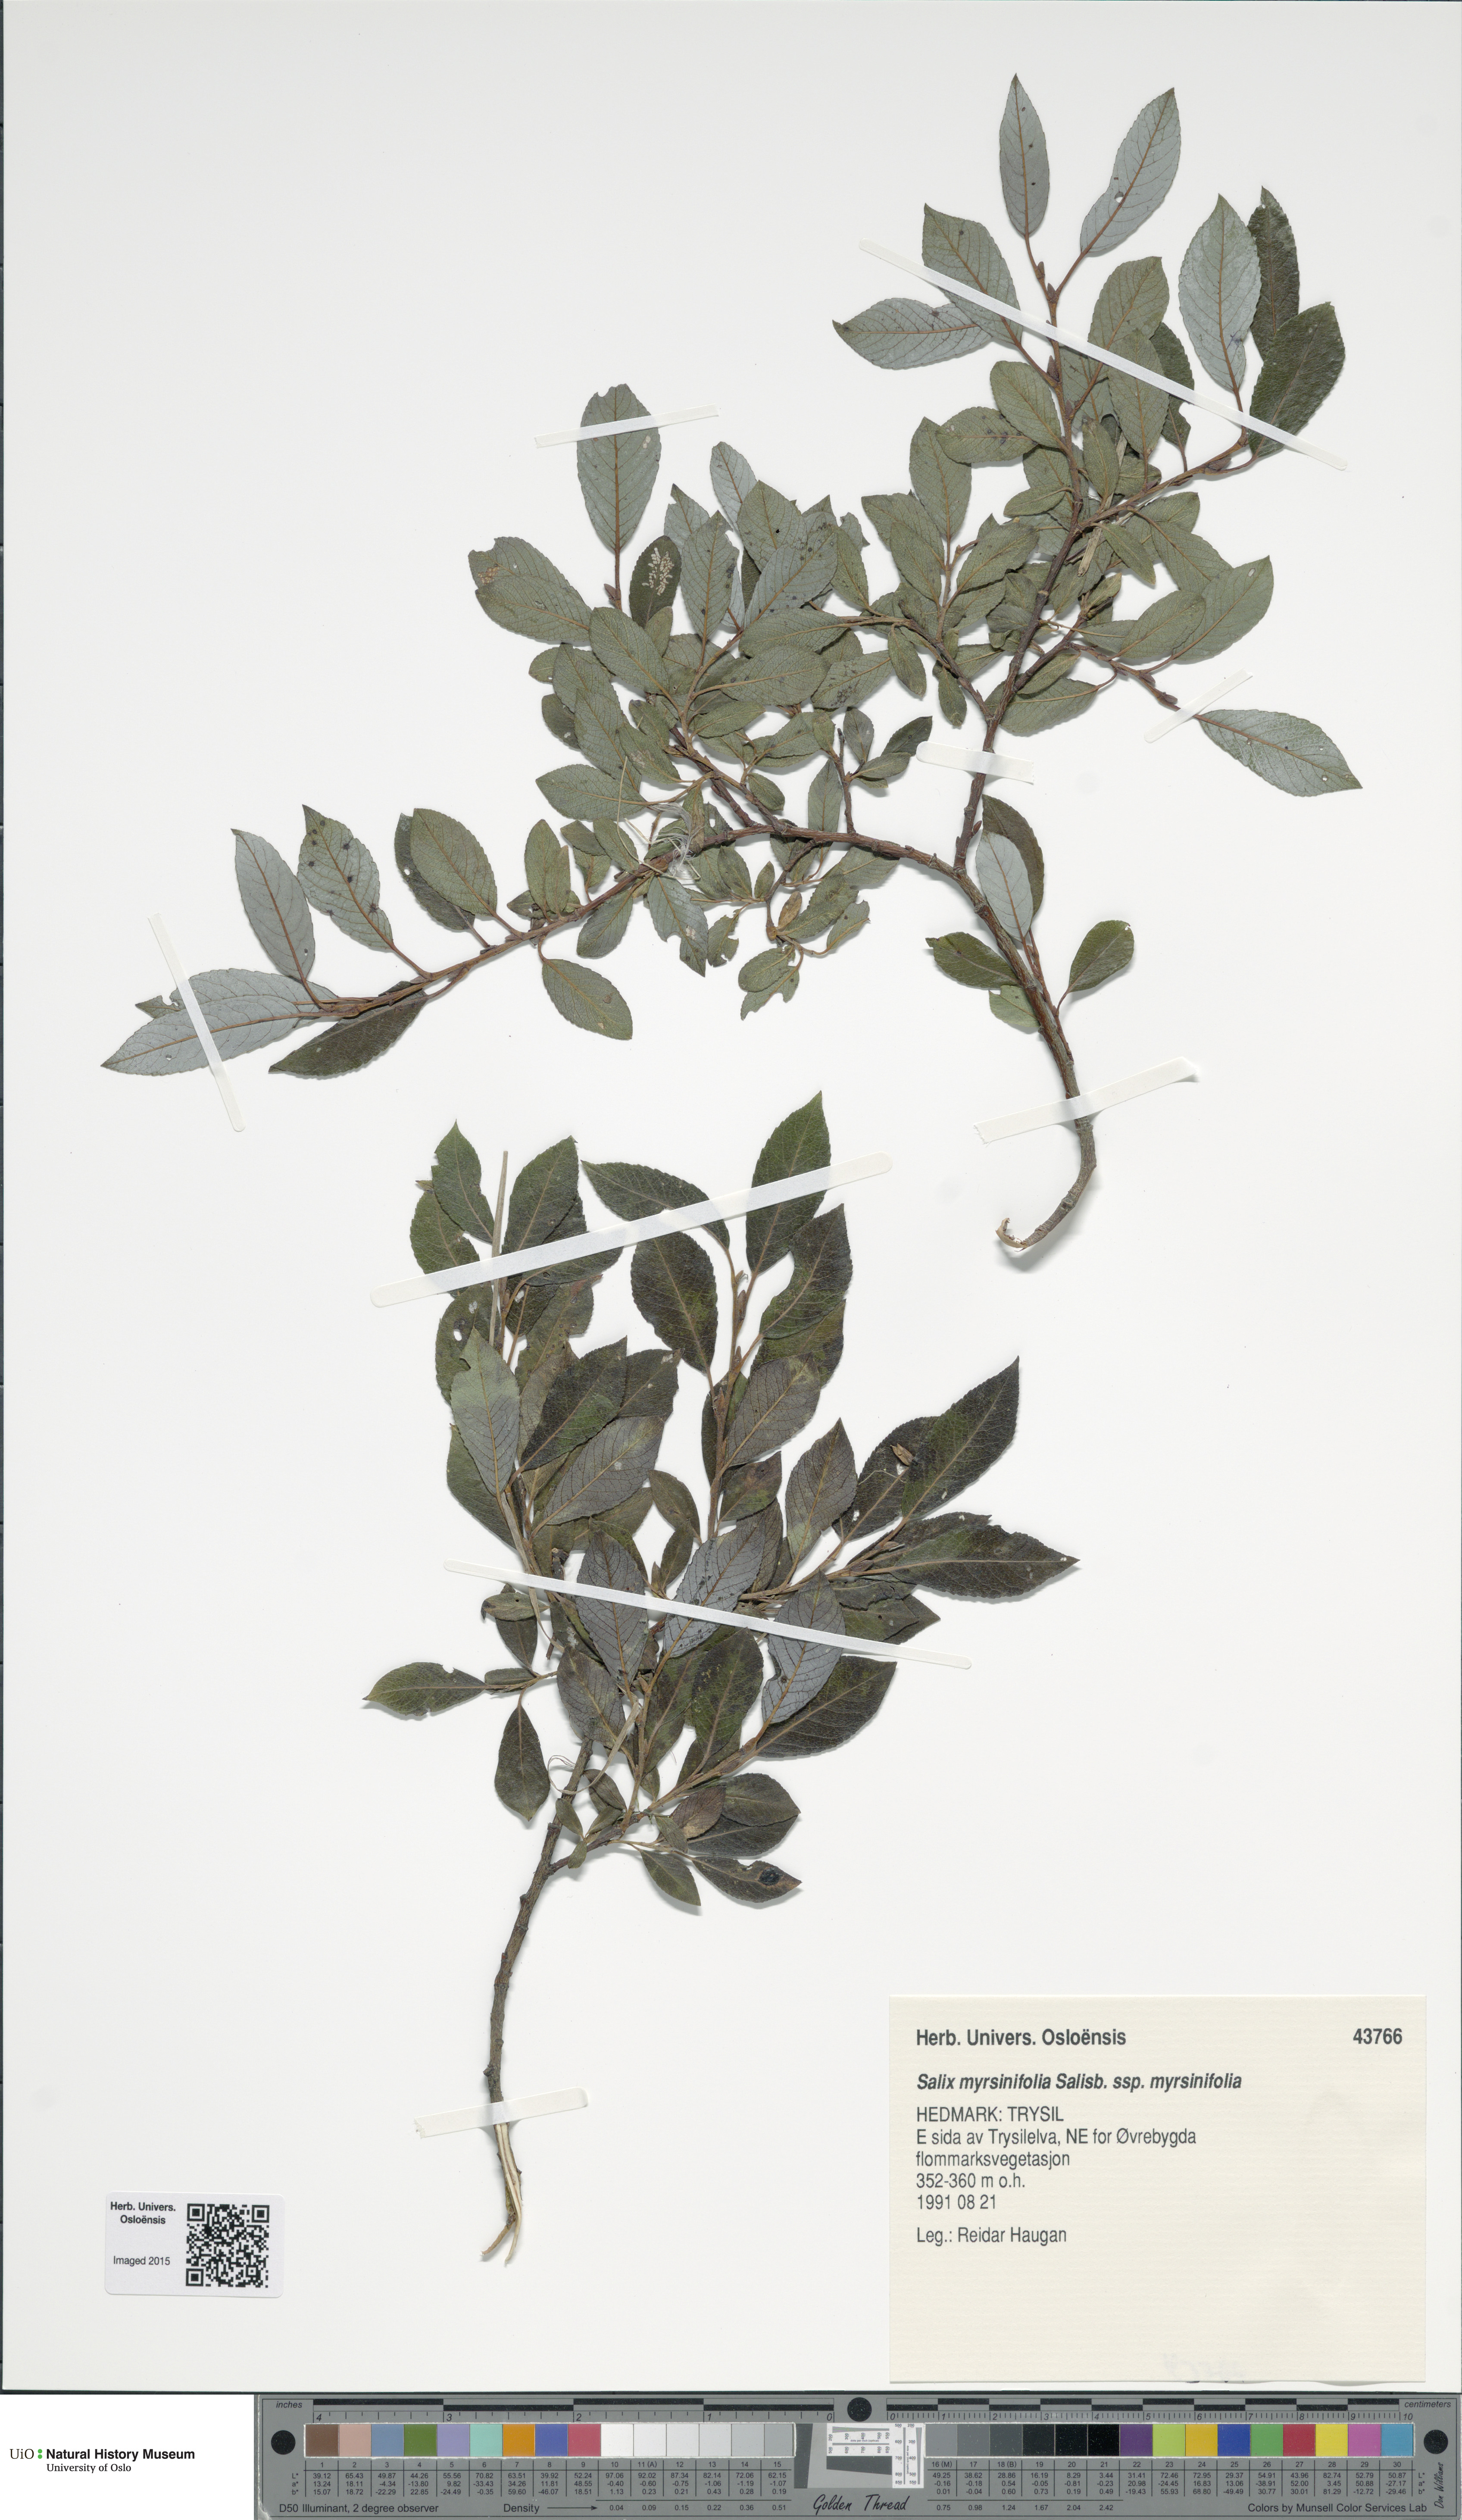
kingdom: Plantae
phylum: Tracheophyta
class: Magnoliopsida
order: Malpighiales
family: Salicaceae
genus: Salix
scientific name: Salix myrsinifolia
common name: Dark-leaved willow
